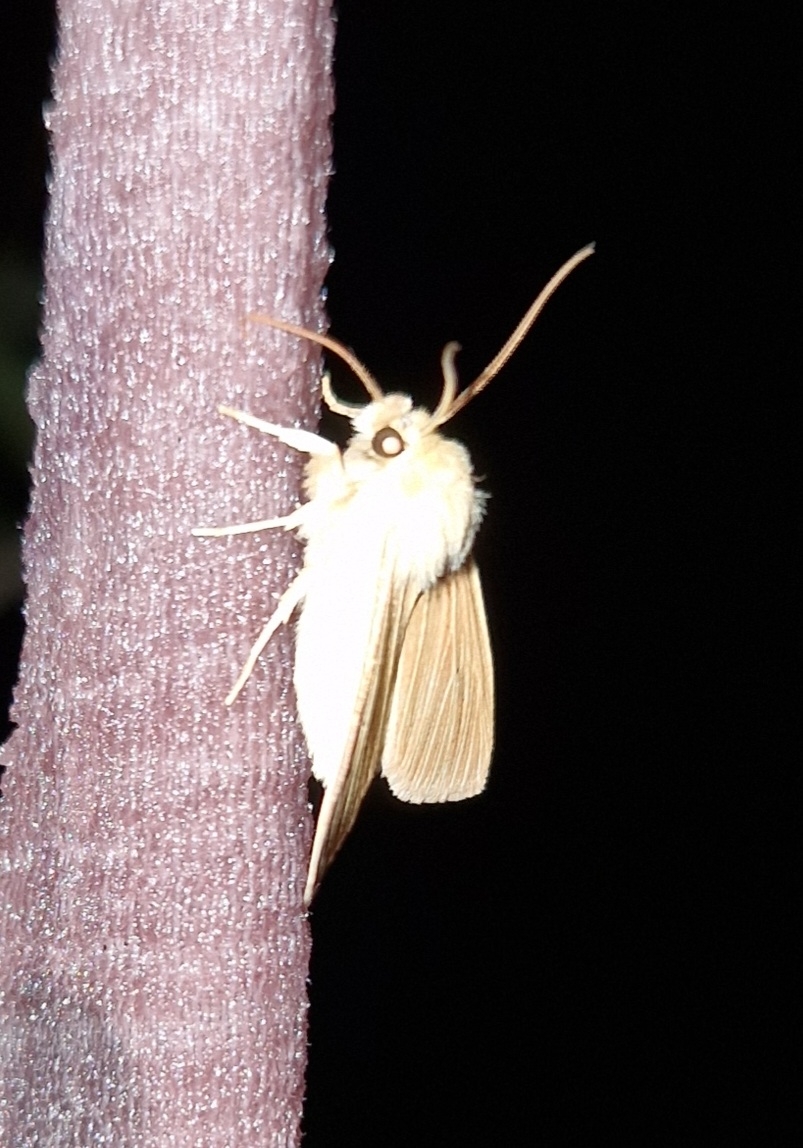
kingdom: Animalia
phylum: Arthropoda
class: Insecta
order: Lepidoptera
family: Noctuidae
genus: Mythimna
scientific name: Mythimna pallens
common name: Halmugle
